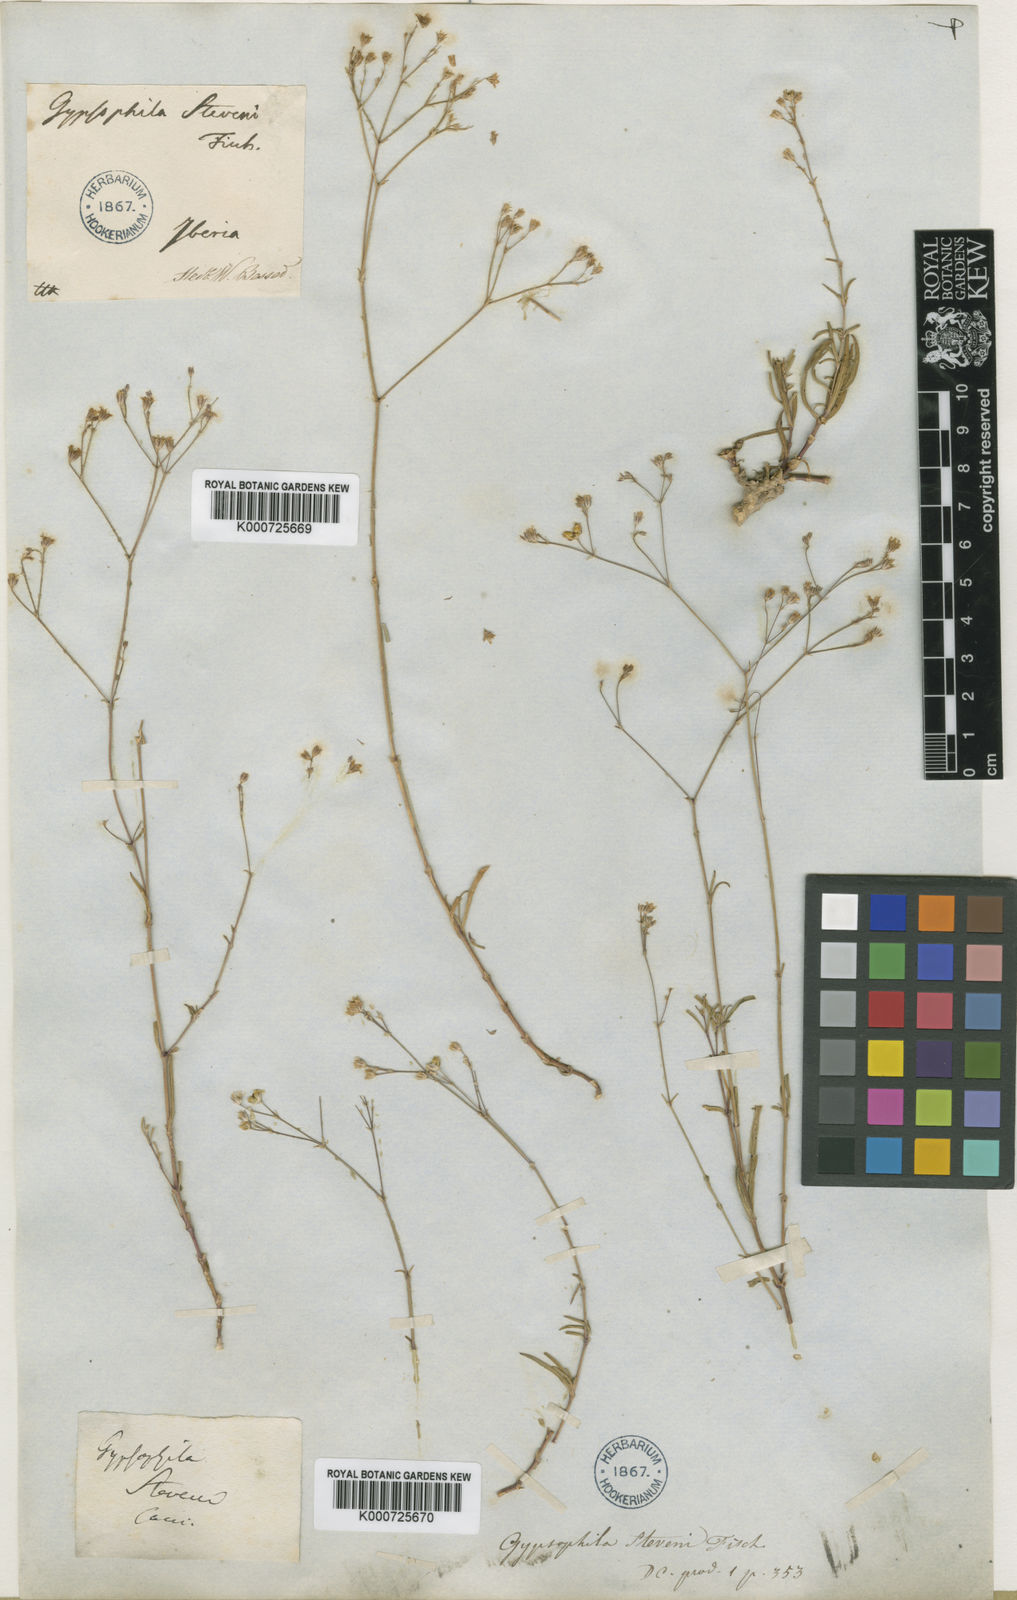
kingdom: Plantae
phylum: Tracheophyta
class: Magnoliopsida
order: Caryophyllales
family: Caryophyllaceae
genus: Gypsophila
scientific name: Gypsophila stevenii
